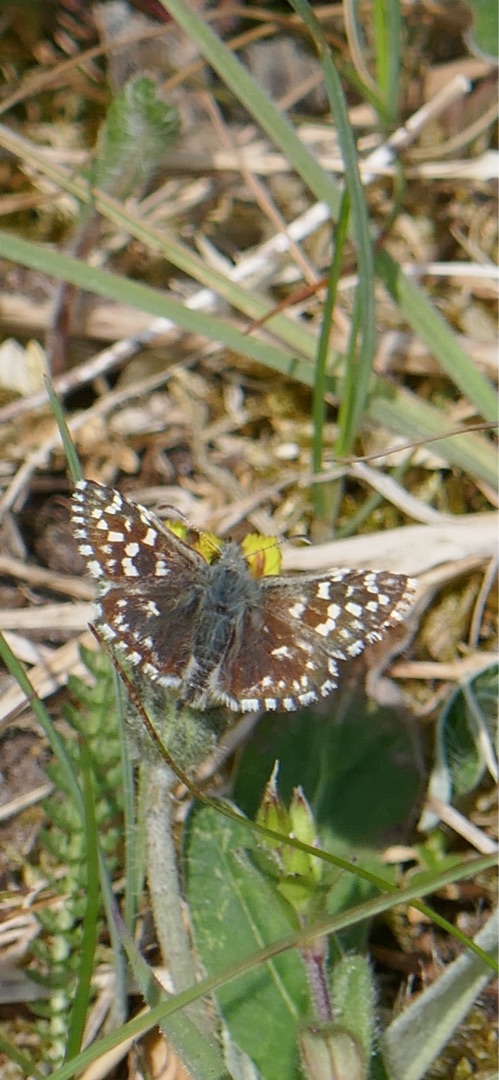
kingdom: Animalia
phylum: Arthropoda
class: Insecta
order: Lepidoptera
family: Hesperiidae
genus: Pyrgus
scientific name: Pyrgus malvae
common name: Spættet bredpande
